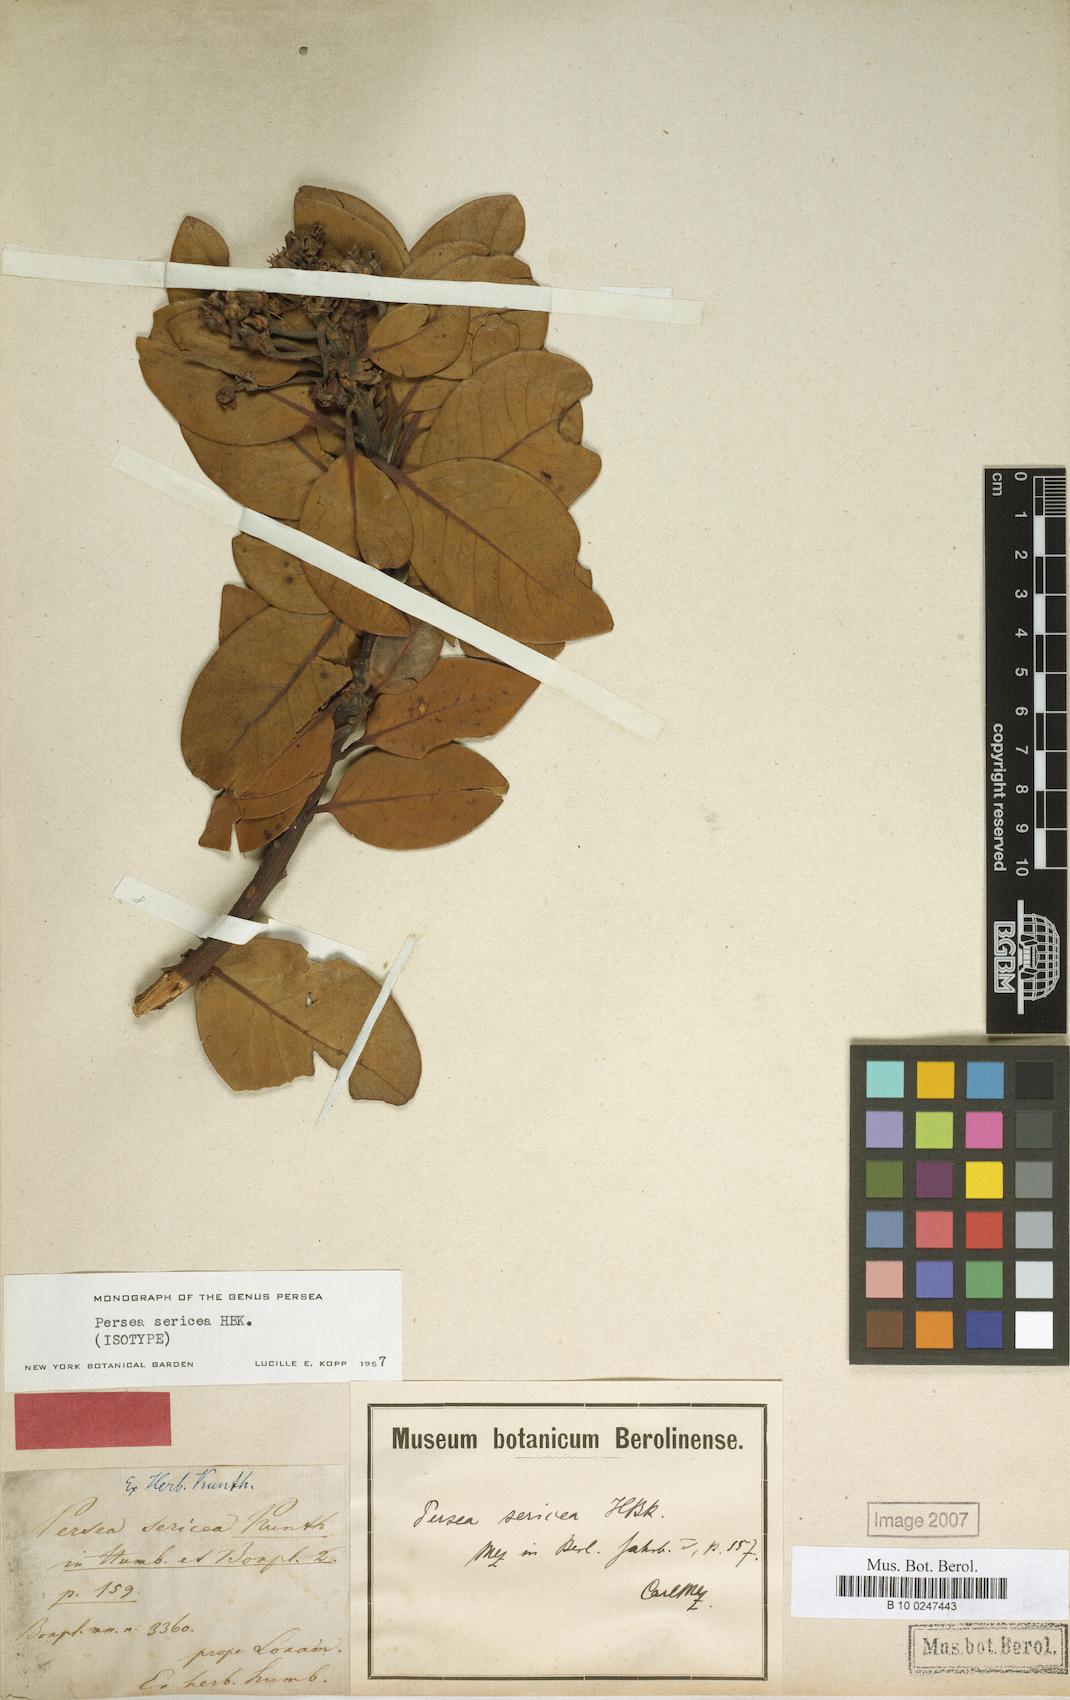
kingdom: Plantae
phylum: Tracheophyta
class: Magnoliopsida
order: Laurales
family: Lauraceae
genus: Persea
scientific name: Persea sericea
